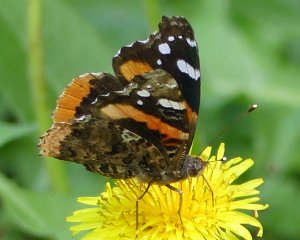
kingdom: Animalia
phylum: Arthropoda
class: Insecta
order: Lepidoptera
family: Nymphalidae
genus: Vanessa
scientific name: Vanessa atalanta
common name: Red Admiral
